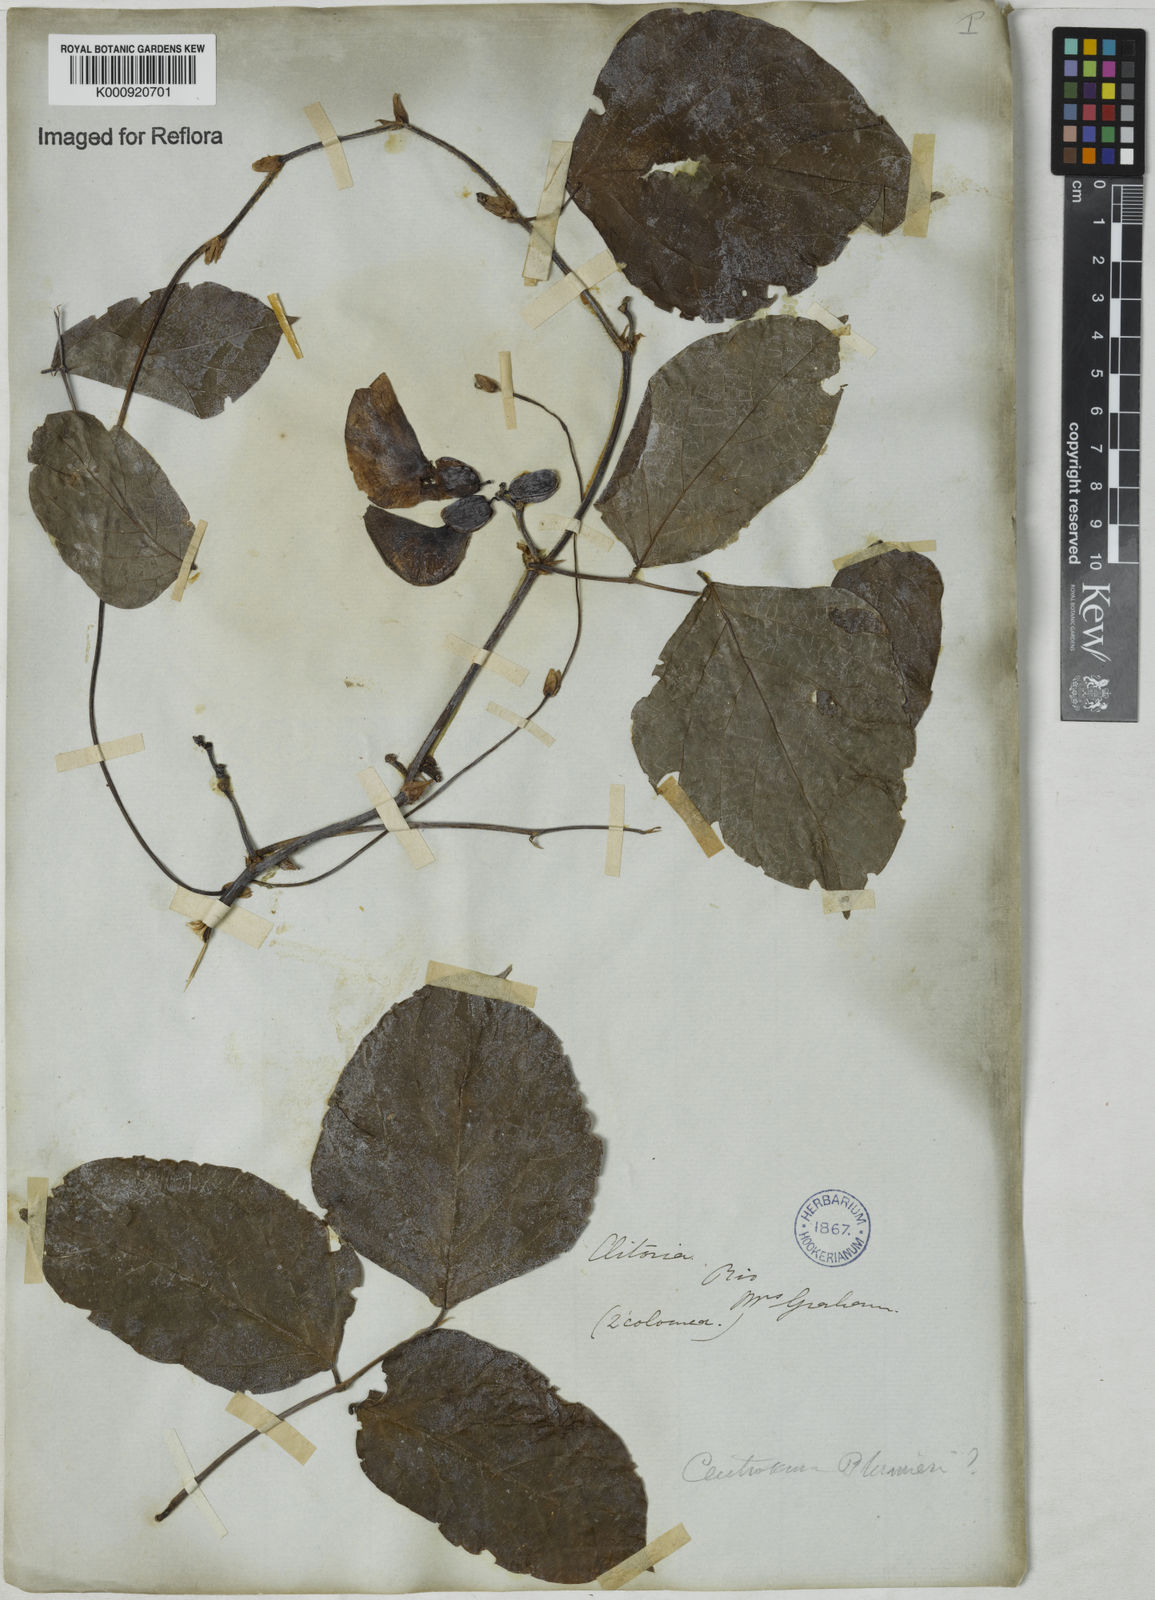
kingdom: Plantae
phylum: Tracheophyta
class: Magnoliopsida
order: Fabales
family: Fabaceae
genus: Centrosema
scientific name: Centrosema plumieri
